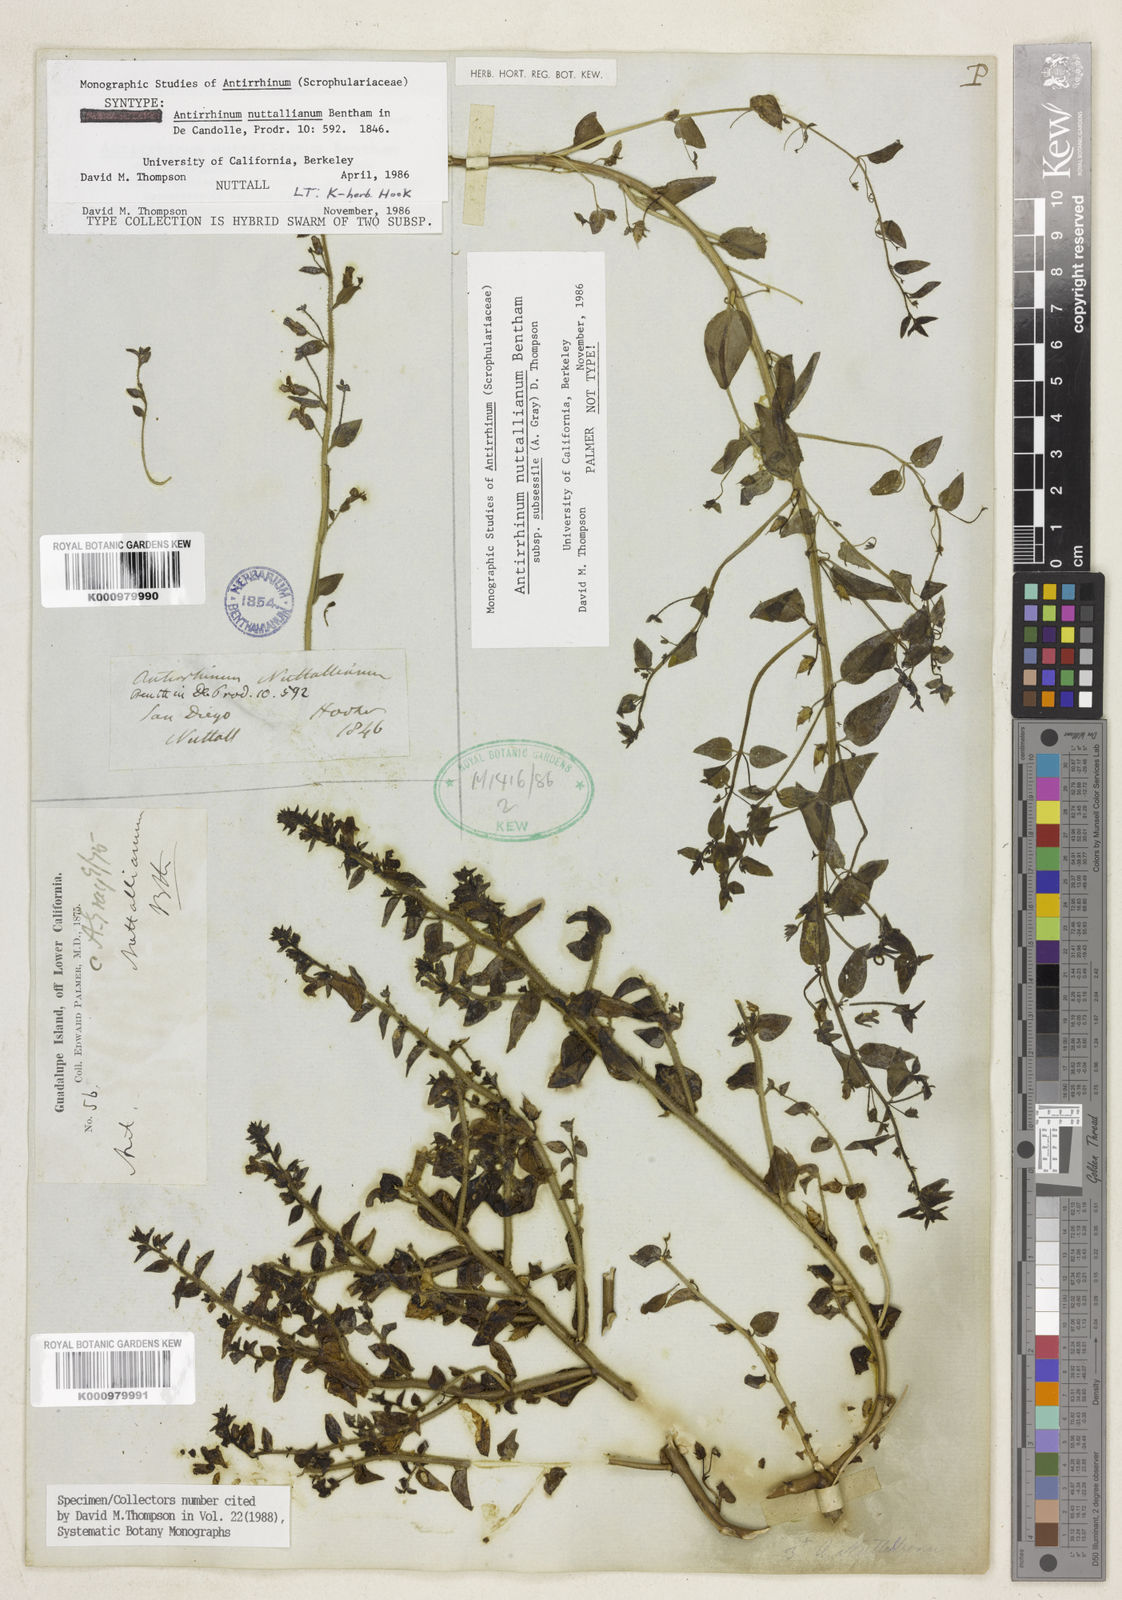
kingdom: Plantae
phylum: Tracheophyta
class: Magnoliopsida
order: Lamiales
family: Plantaginaceae
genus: Antirrhinum
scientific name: Antirrhinum
